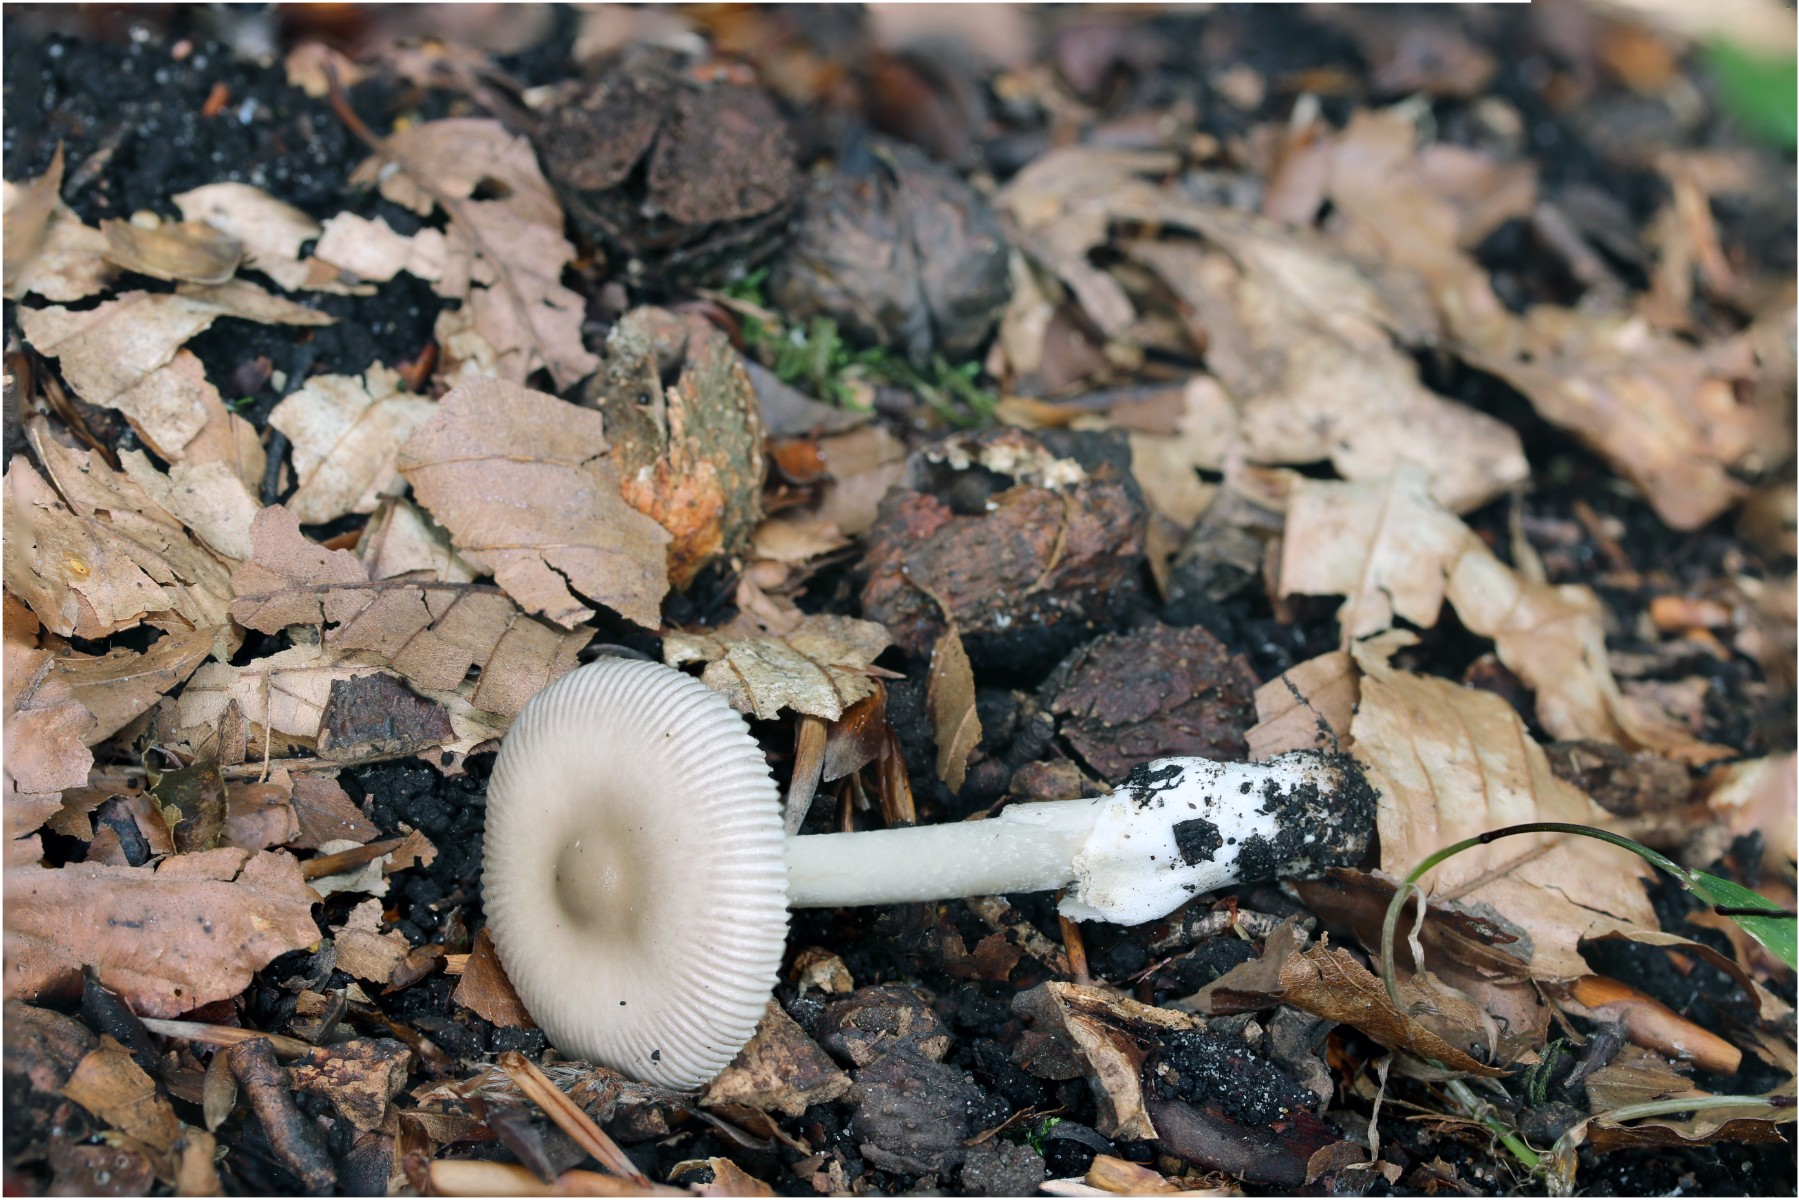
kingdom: Fungi
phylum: Basidiomycota
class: Agaricomycetes
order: Agaricales
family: Amanitaceae
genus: Amanita
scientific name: Amanita vaginata
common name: grå kam-fluesvamp
